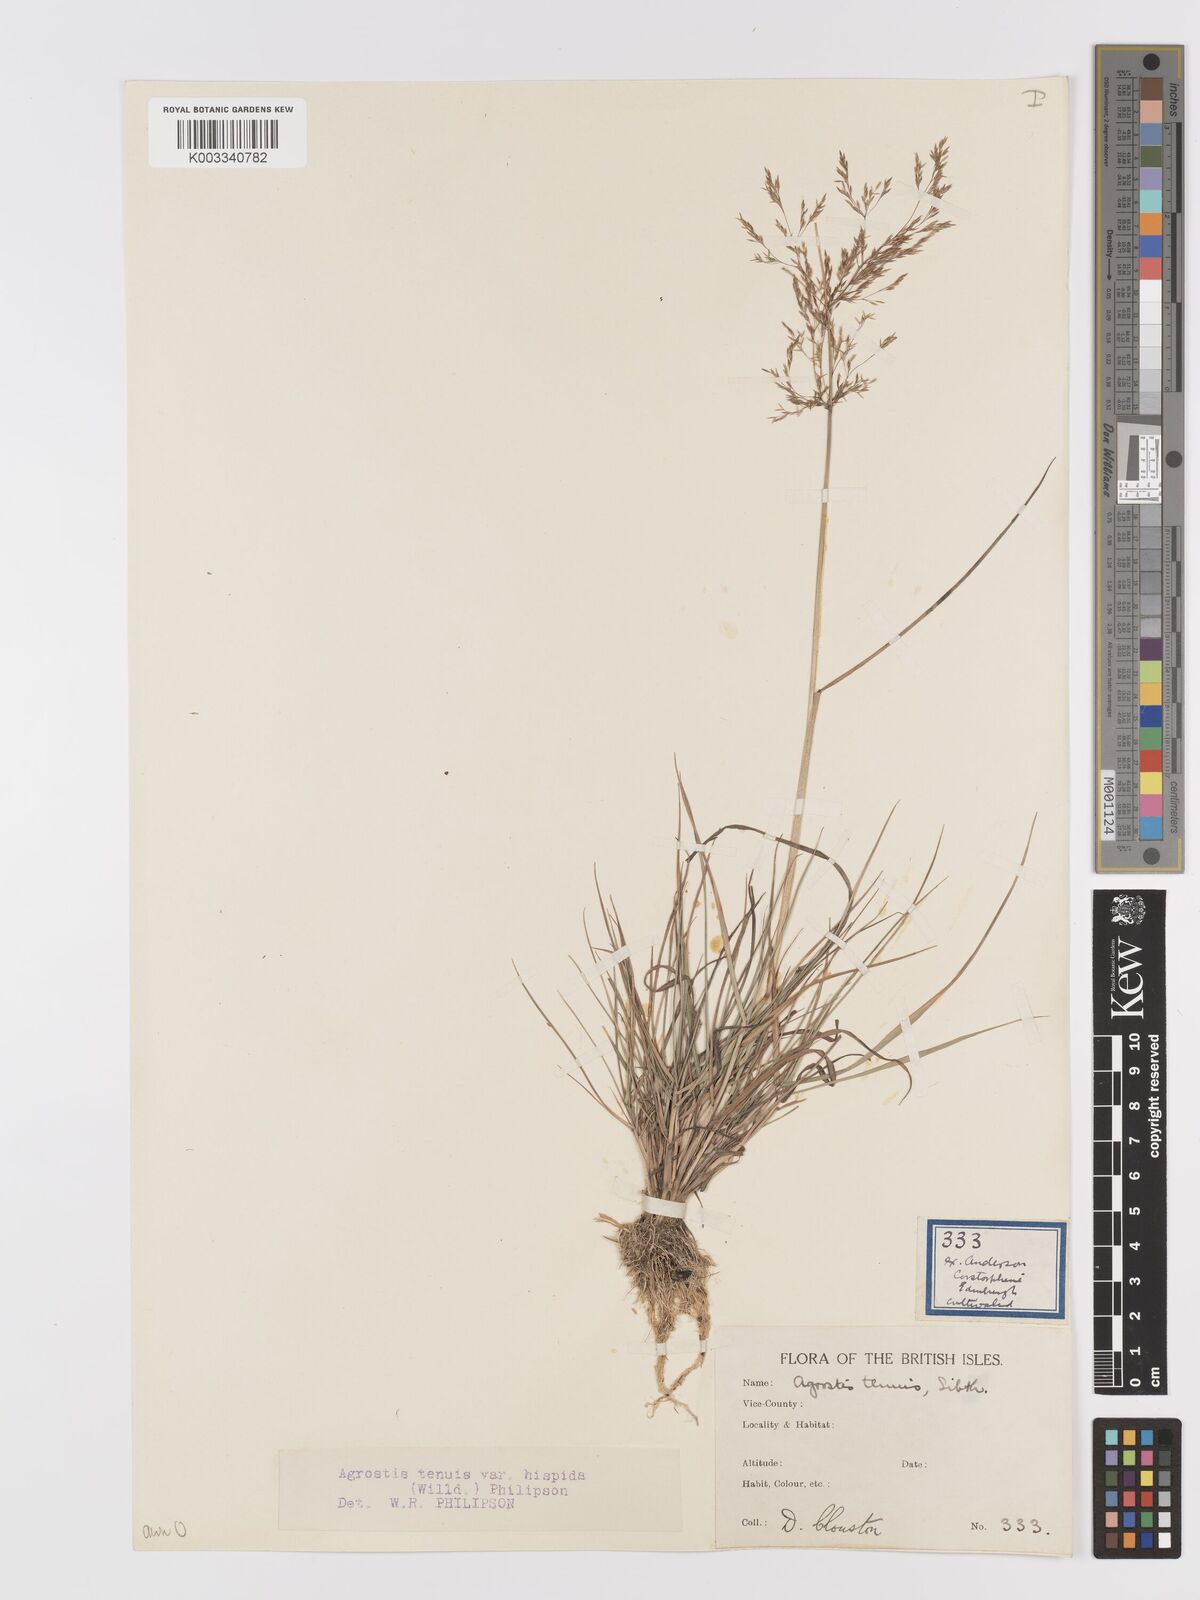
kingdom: Plantae
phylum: Tracheophyta
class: Liliopsida
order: Poales
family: Poaceae
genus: Agrostis
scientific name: Agrostis capillaris
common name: Colonial bentgrass
